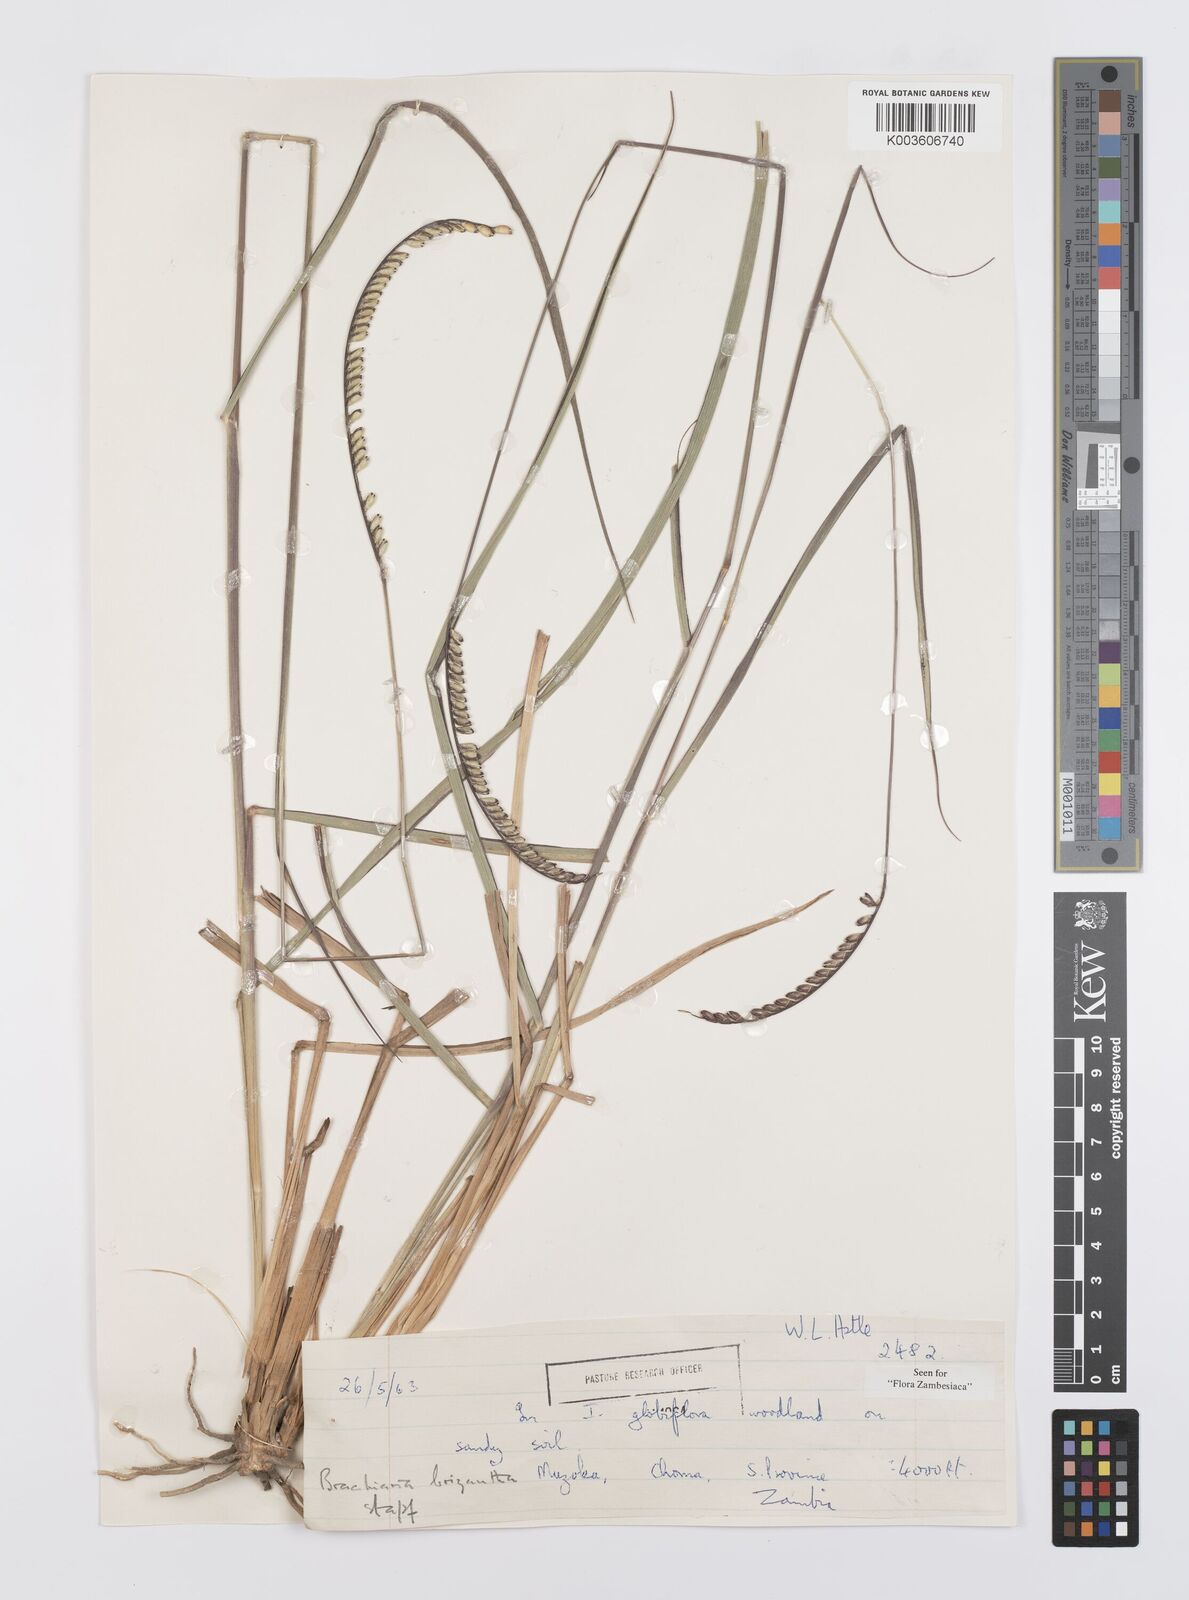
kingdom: Plantae
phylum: Tracheophyta
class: Liliopsida
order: Poales
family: Poaceae
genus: Urochloa
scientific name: Urochloa brizantha
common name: Palisade signalgrass
